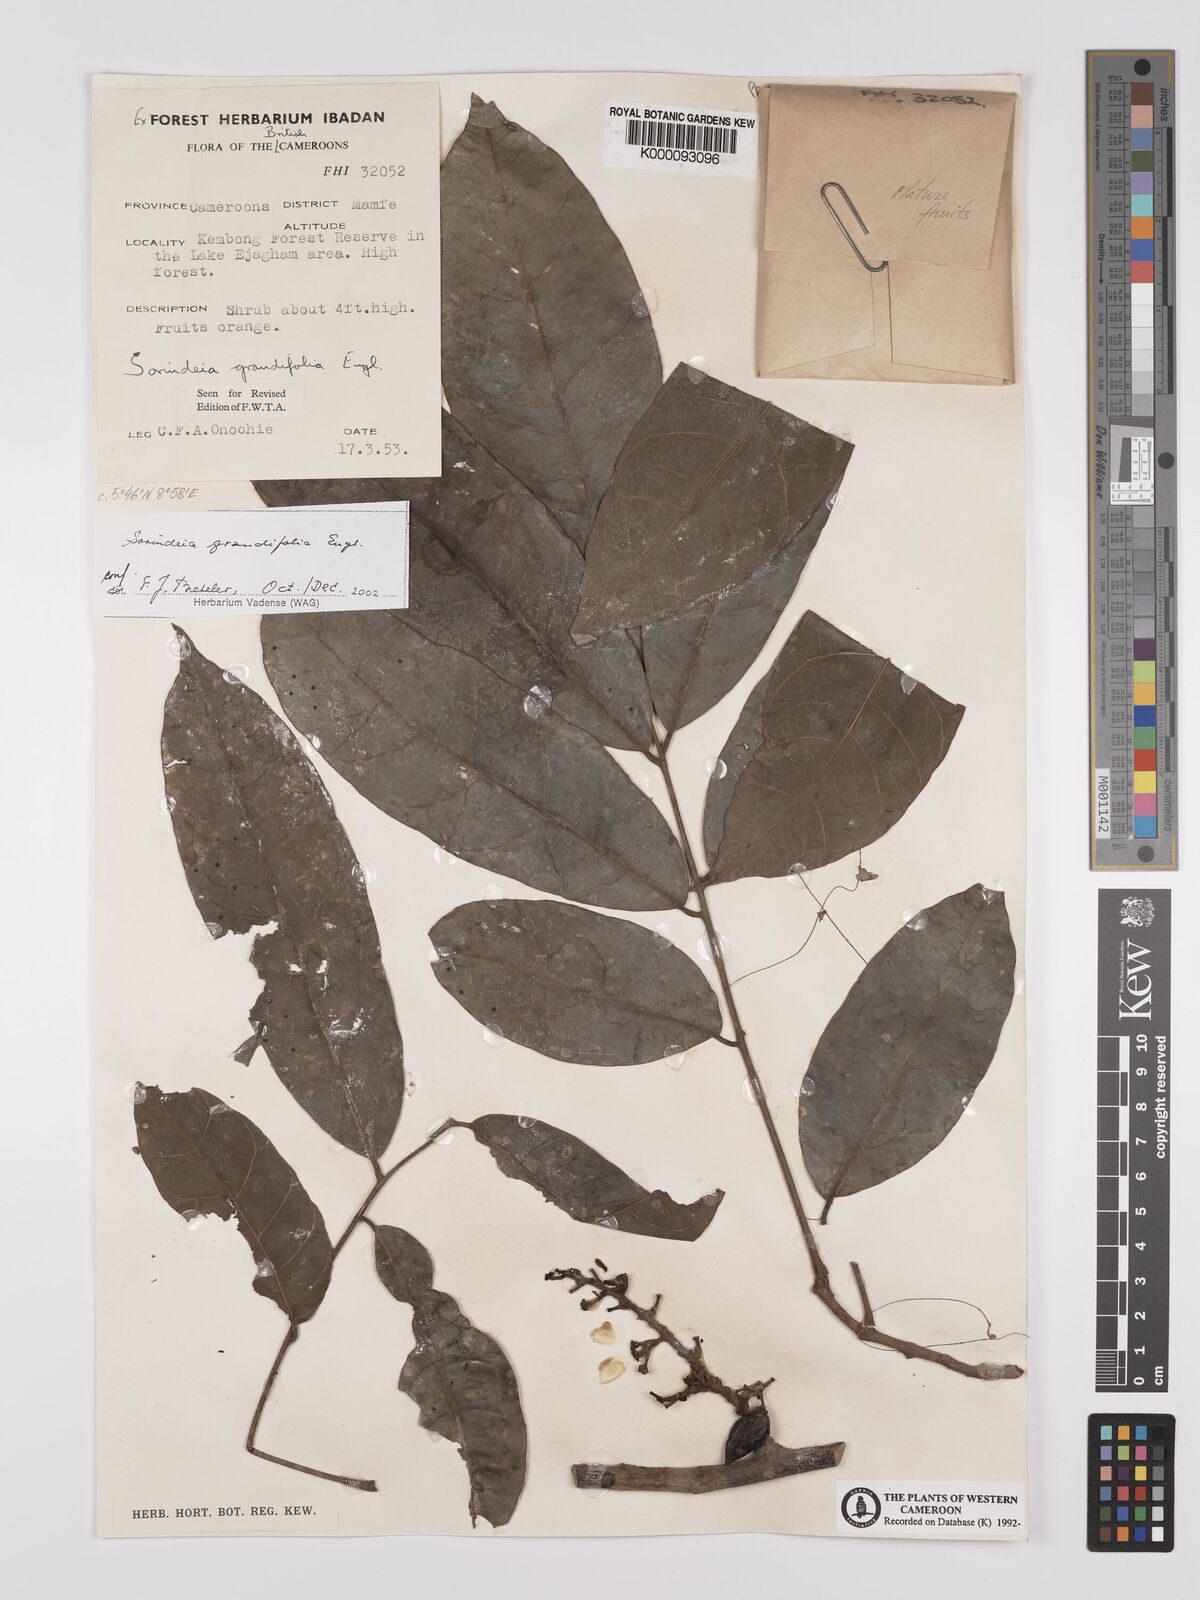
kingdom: Plantae
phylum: Tracheophyta
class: Magnoliopsida
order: Sapindales
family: Anacardiaceae
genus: Sorindeia
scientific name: Sorindeia grandifolia
